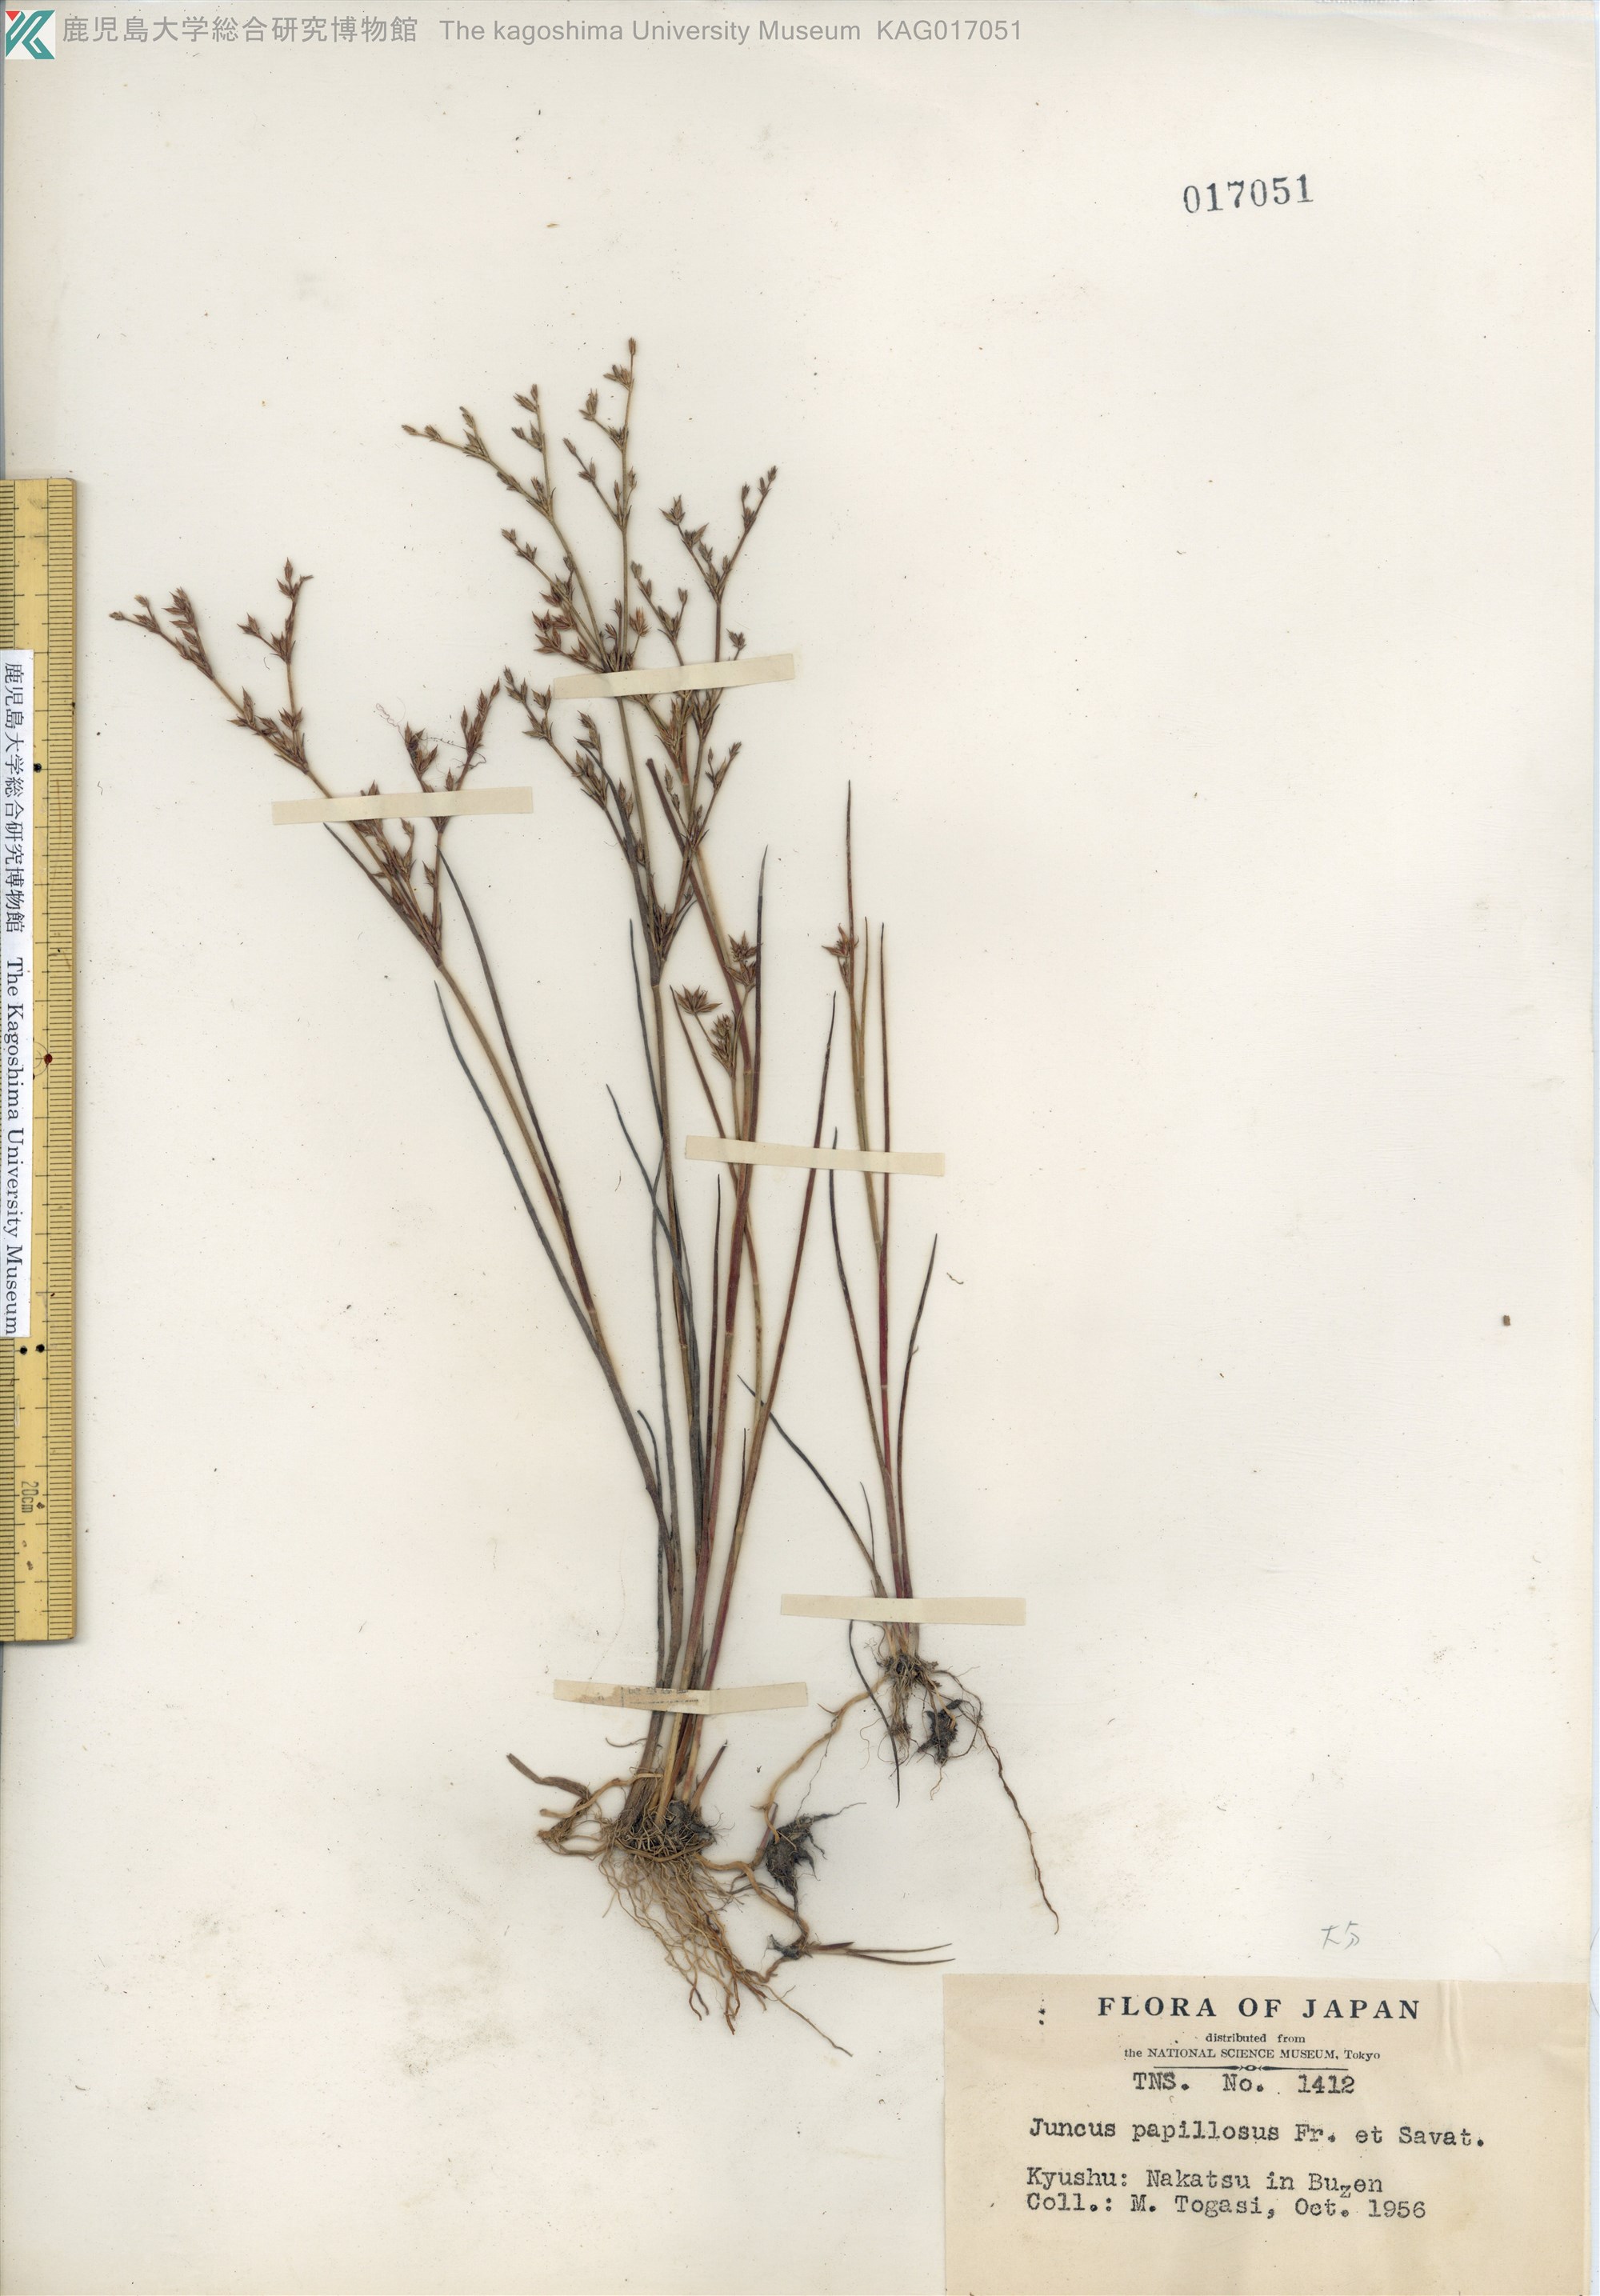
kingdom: Plantae
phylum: Tracheophyta
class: Liliopsida
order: Poales
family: Juncaceae
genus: Juncus
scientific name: Juncus papillosus
